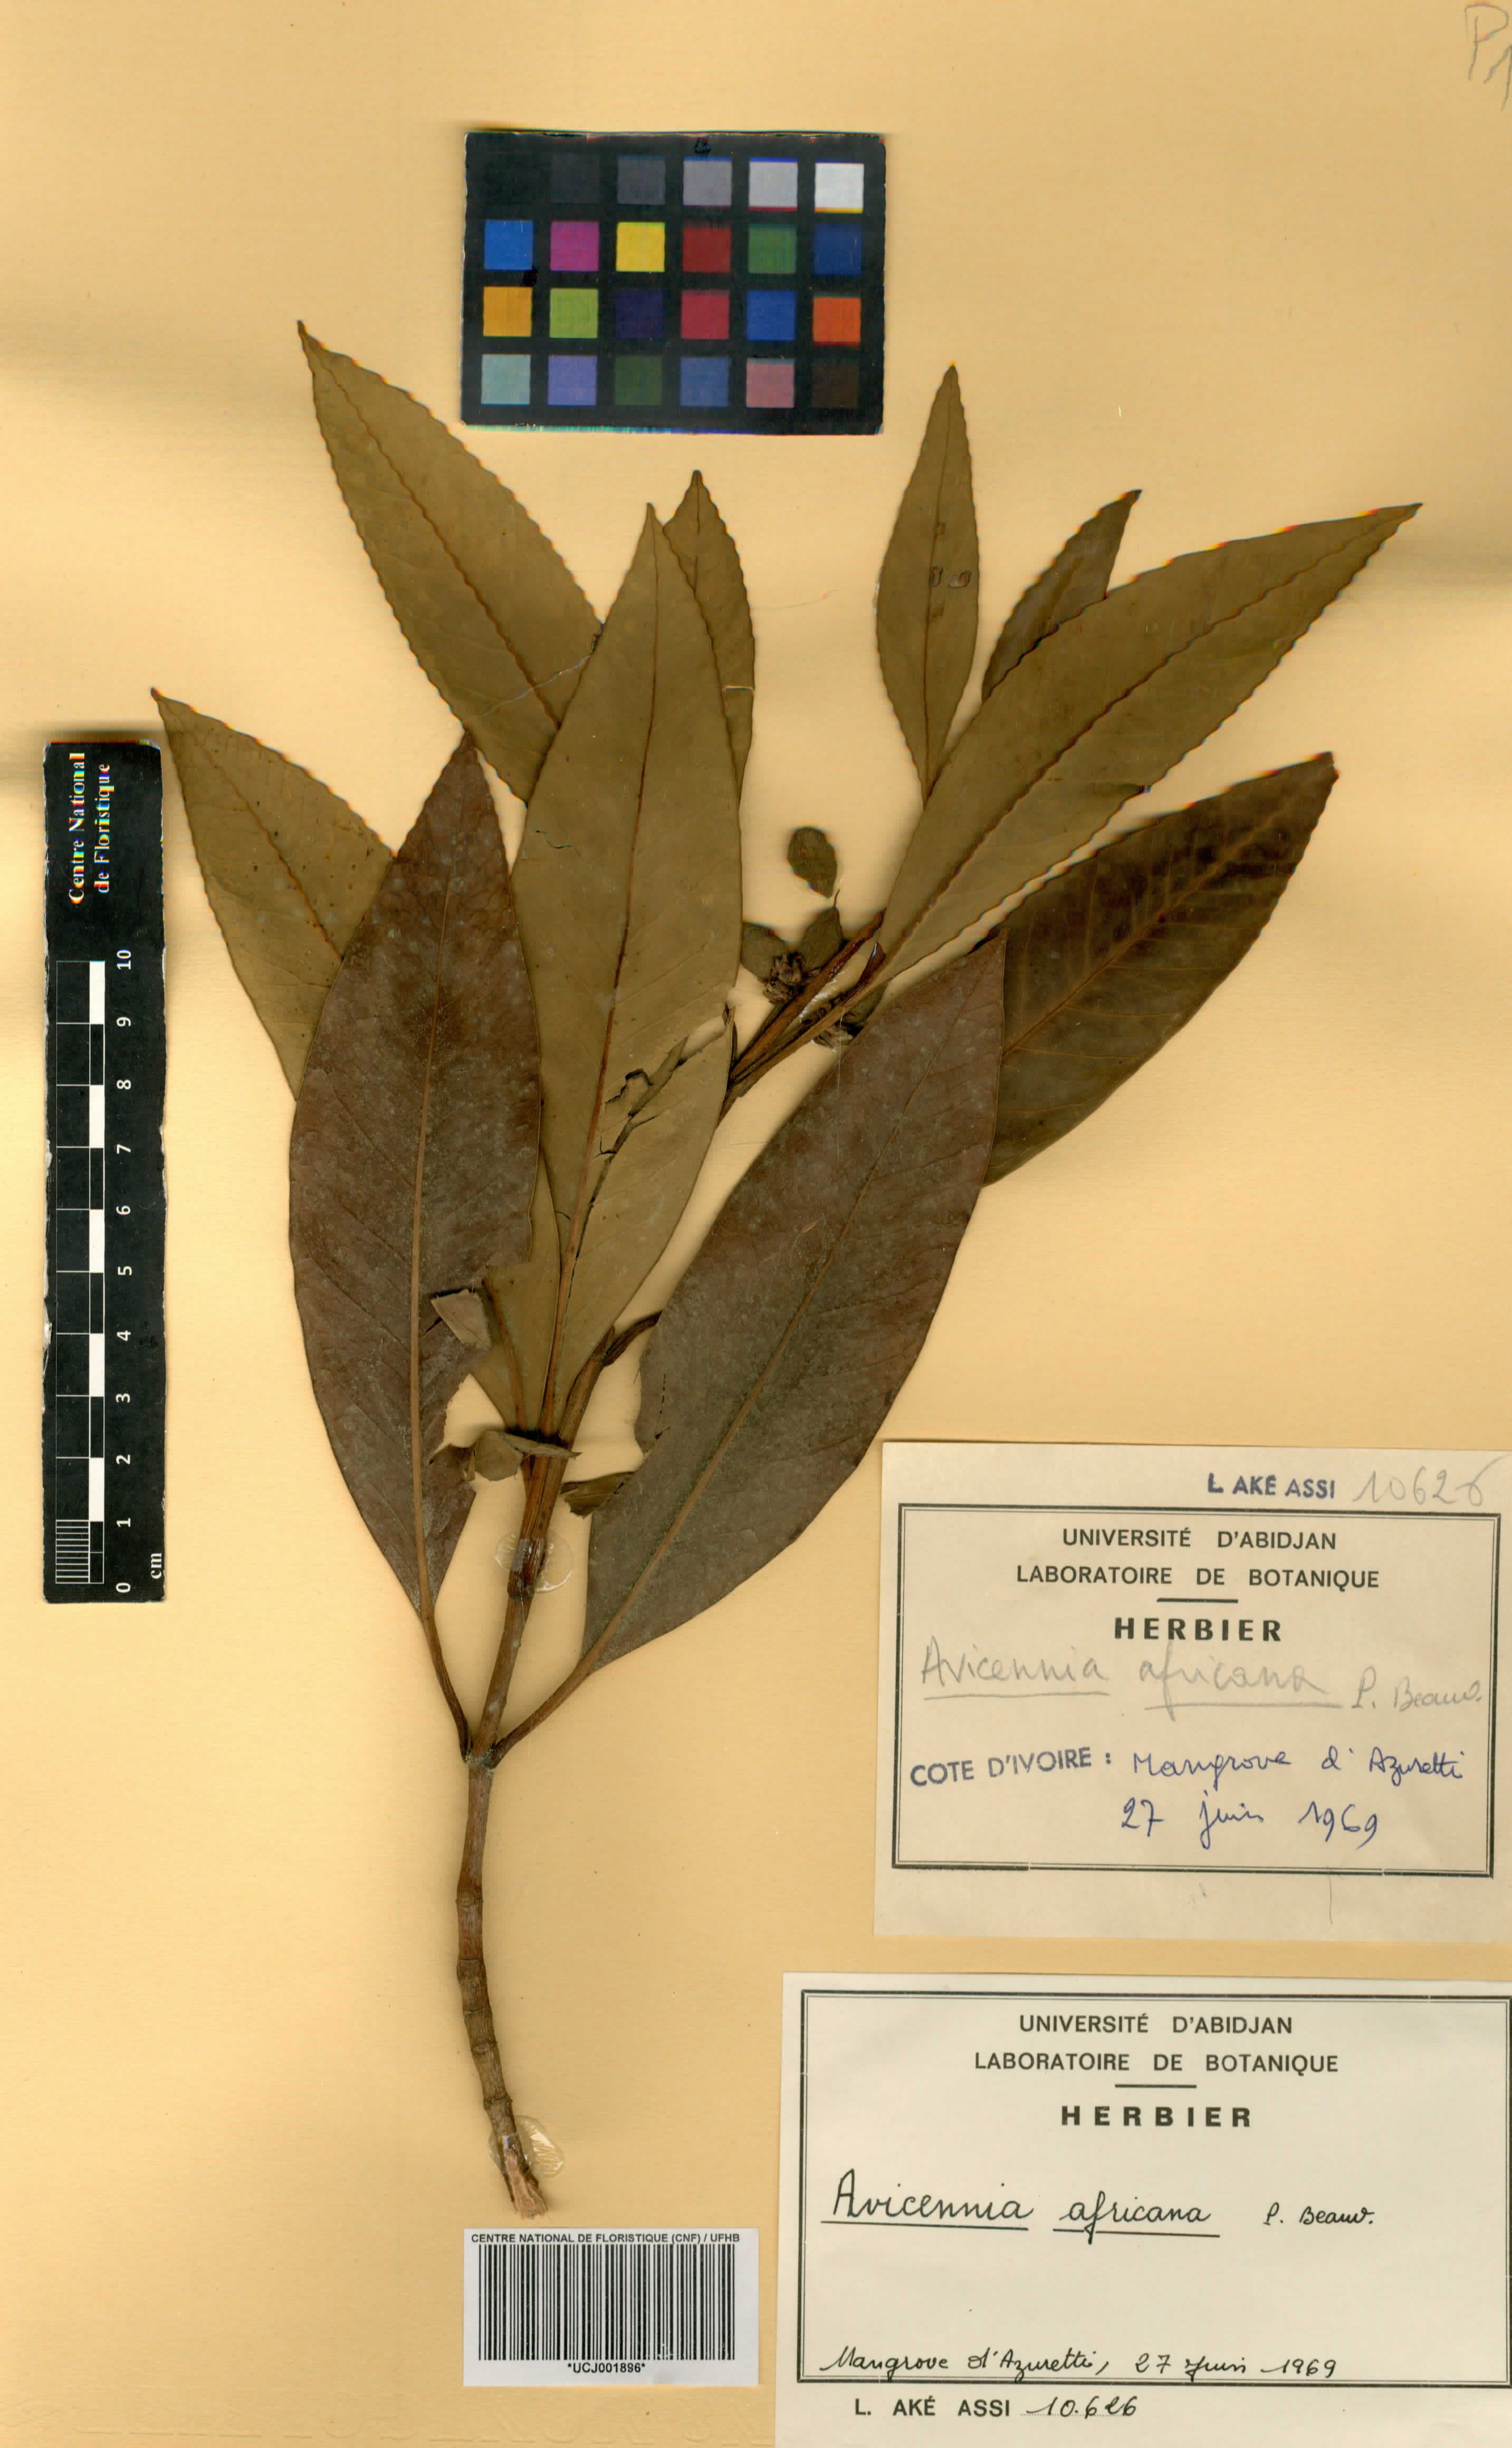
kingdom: Plantae
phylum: Tracheophyta
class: Magnoliopsida
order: Lamiales
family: Acanthaceae
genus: Avicennia
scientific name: Avicennia germinans
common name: Black mangrove
